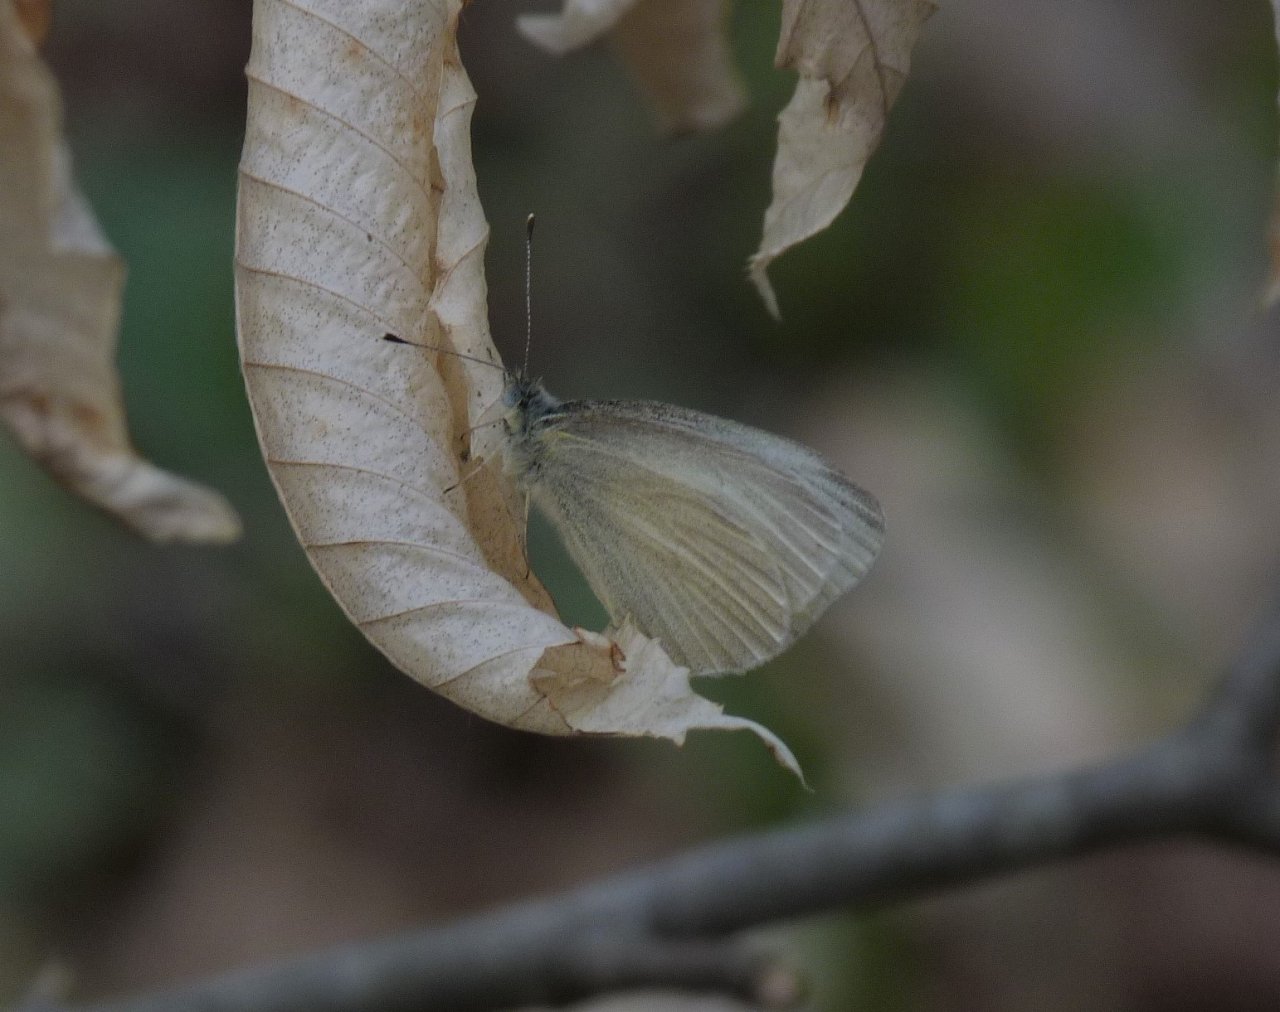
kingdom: Animalia
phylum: Arthropoda
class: Insecta
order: Lepidoptera
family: Pieridae
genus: Pieris
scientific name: Pieris virginiensis
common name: West Virginia White
